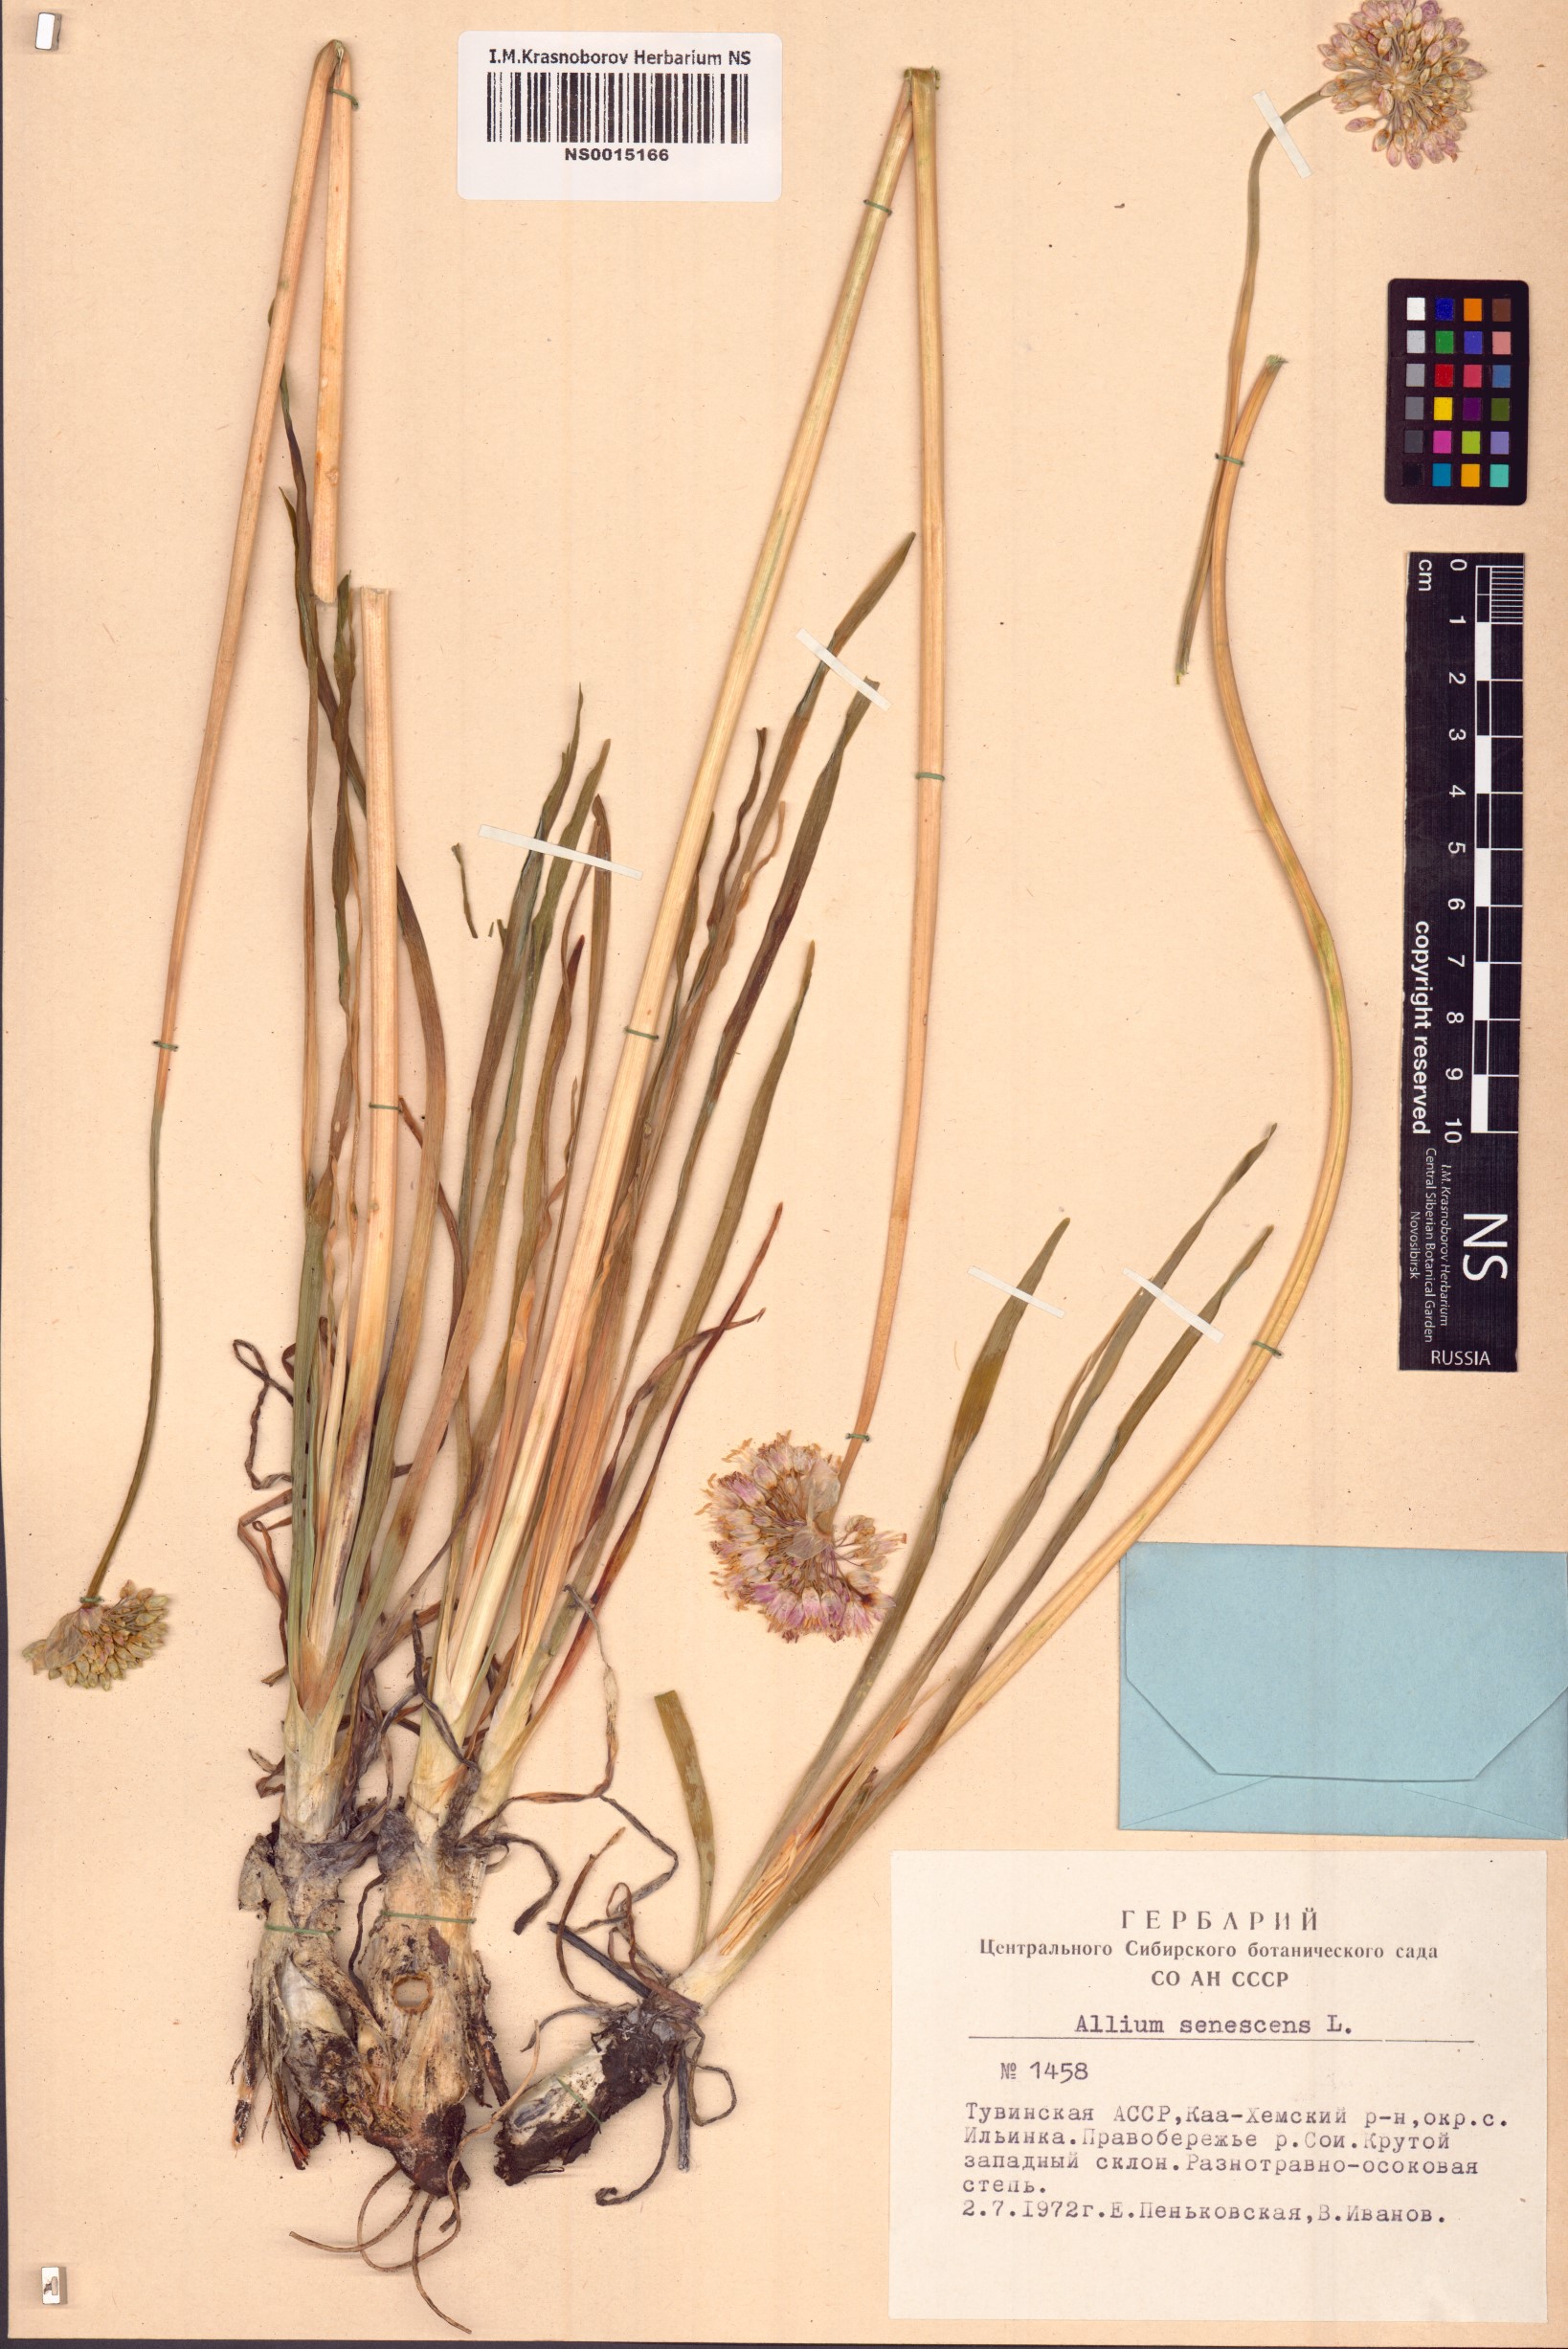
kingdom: Plantae
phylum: Tracheophyta
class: Liliopsida
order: Asparagales
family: Amaryllidaceae
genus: Allium
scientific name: Allium senescens
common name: German garlic
